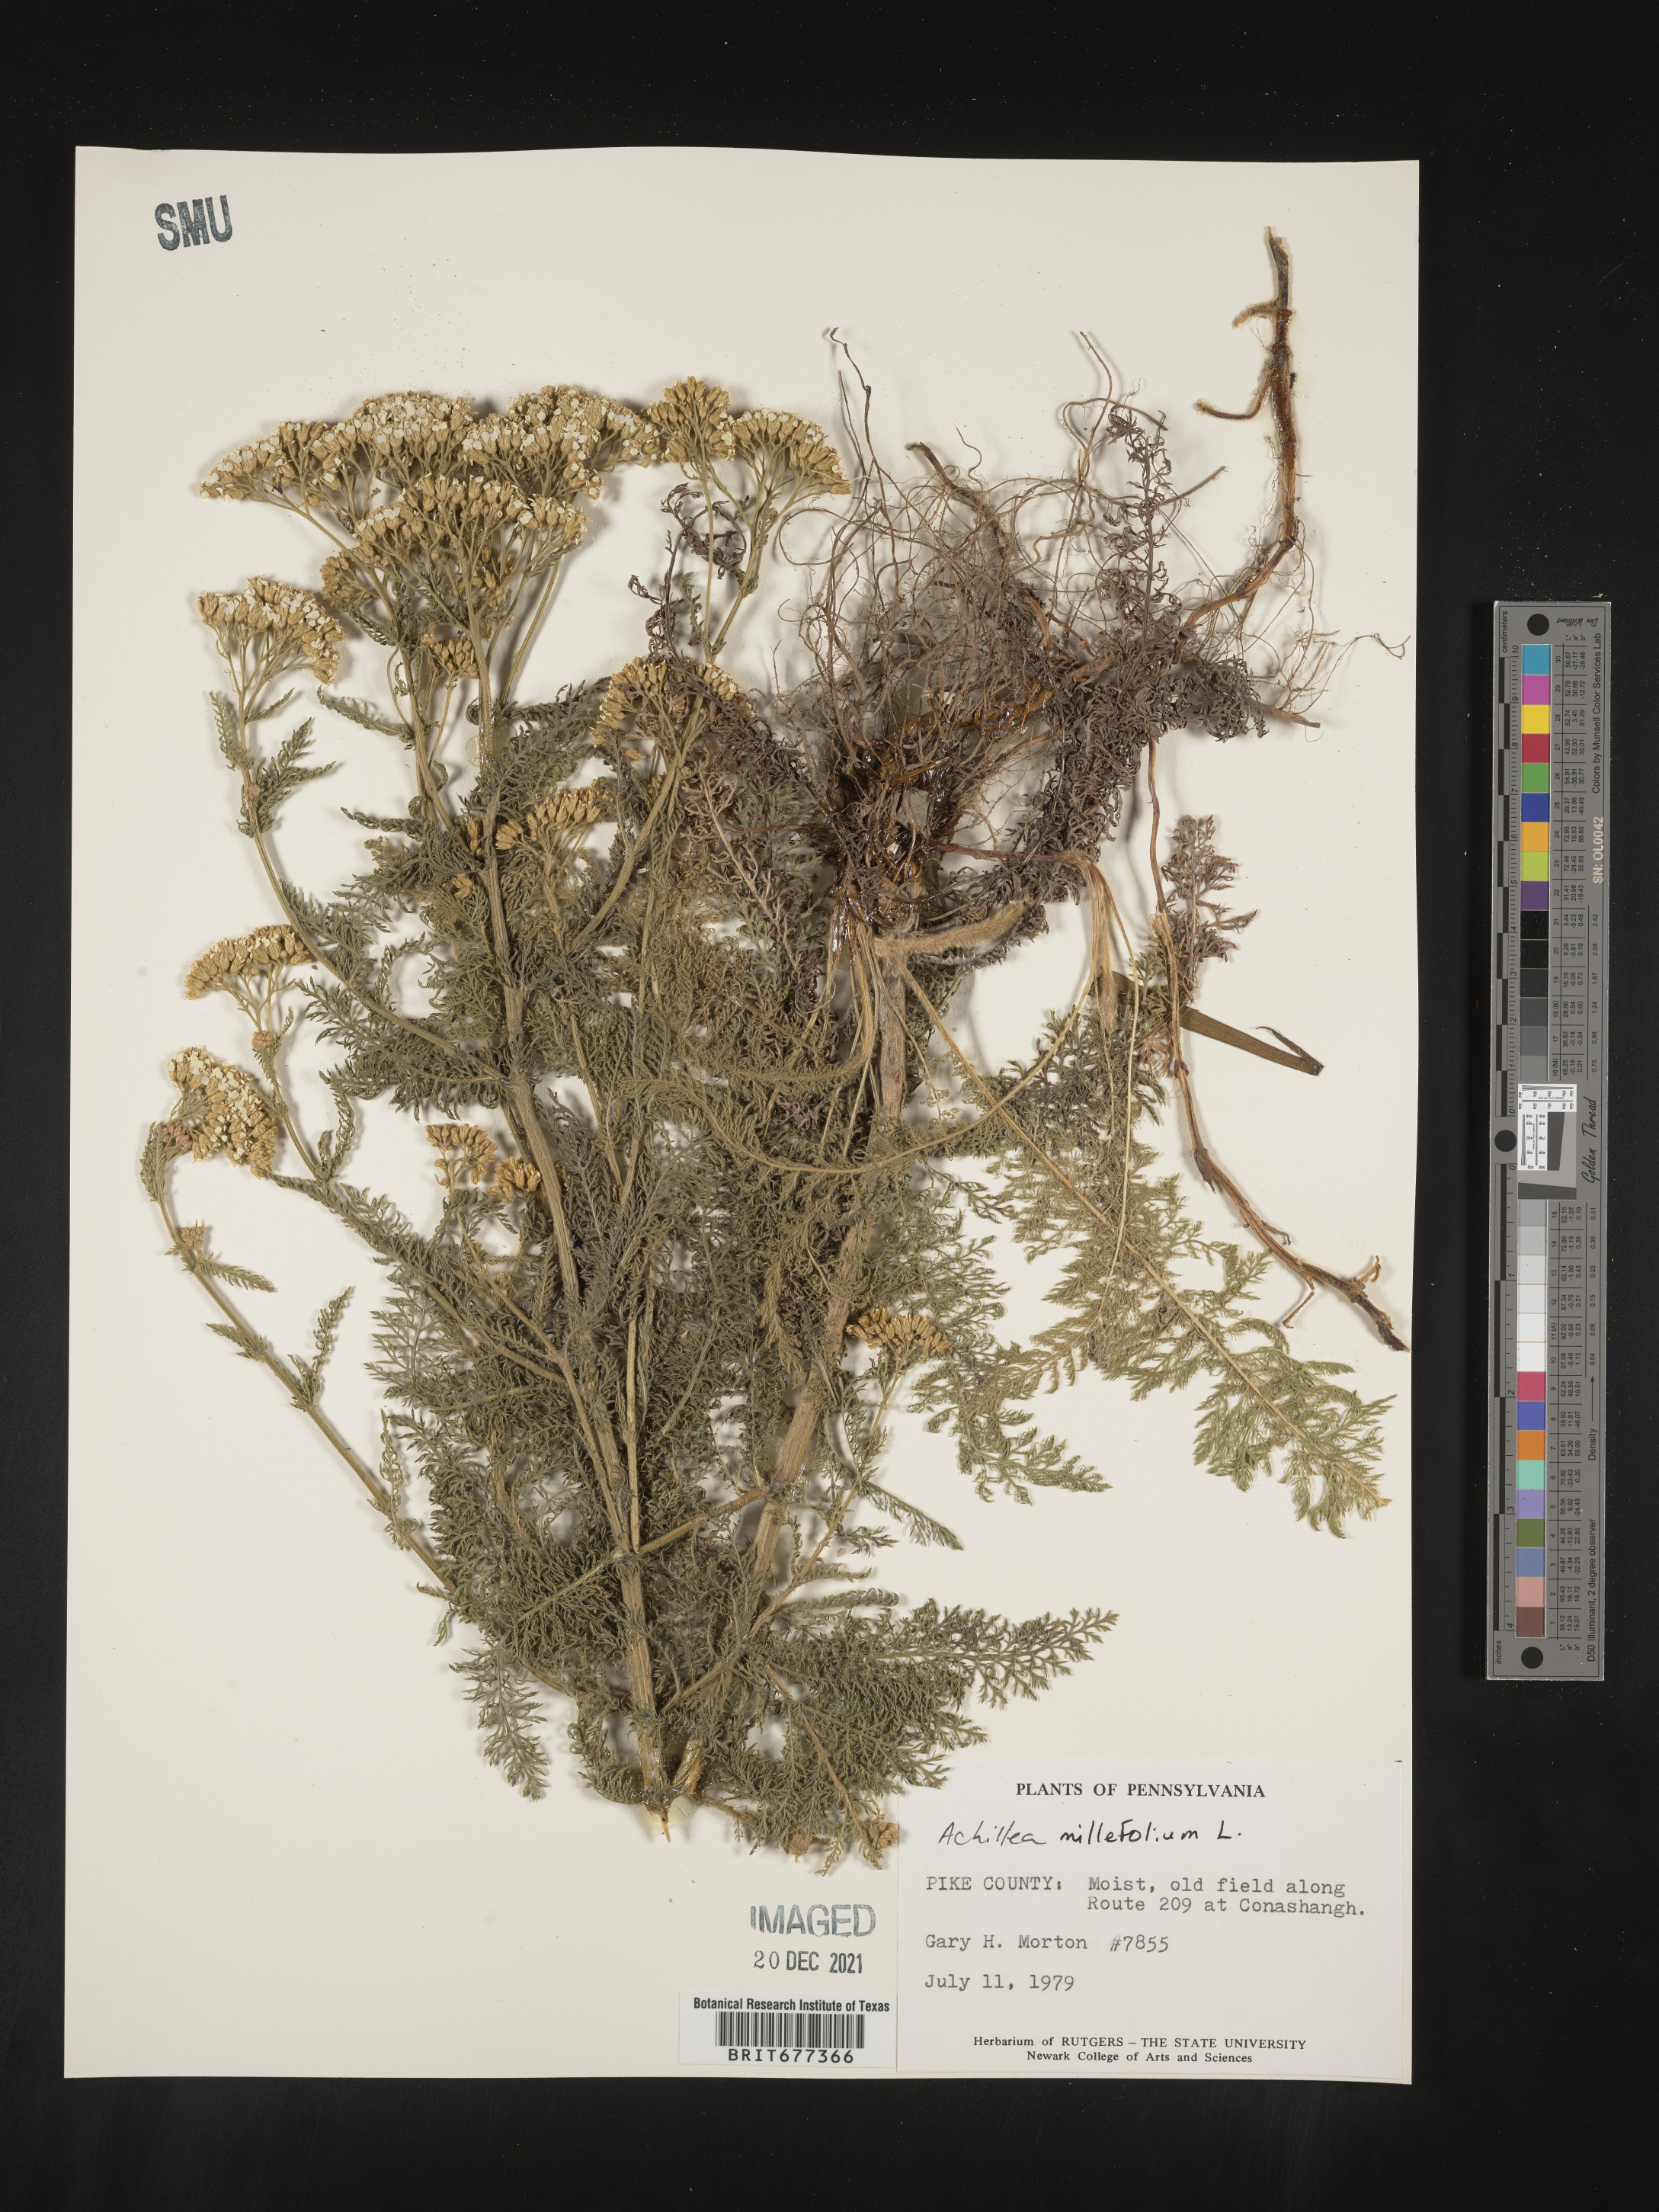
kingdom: Plantae
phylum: Tracheophyta
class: Magnoliopsida
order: Asterales
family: Asteraceae
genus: Achillea
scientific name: Achillea millefolium
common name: Yarrow
